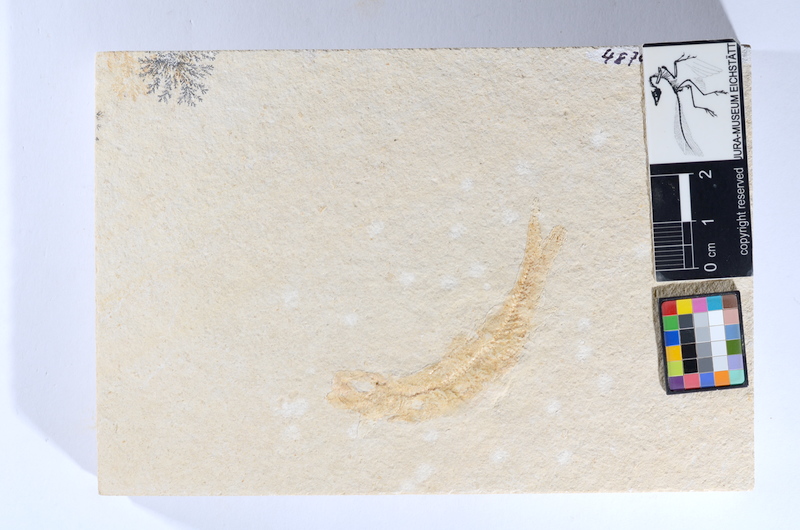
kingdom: Animalia
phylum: Chordata
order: Salmoniformes
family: Orthogonikleithridae
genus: Leptolepides
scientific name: Leptolepides sprattiformis
